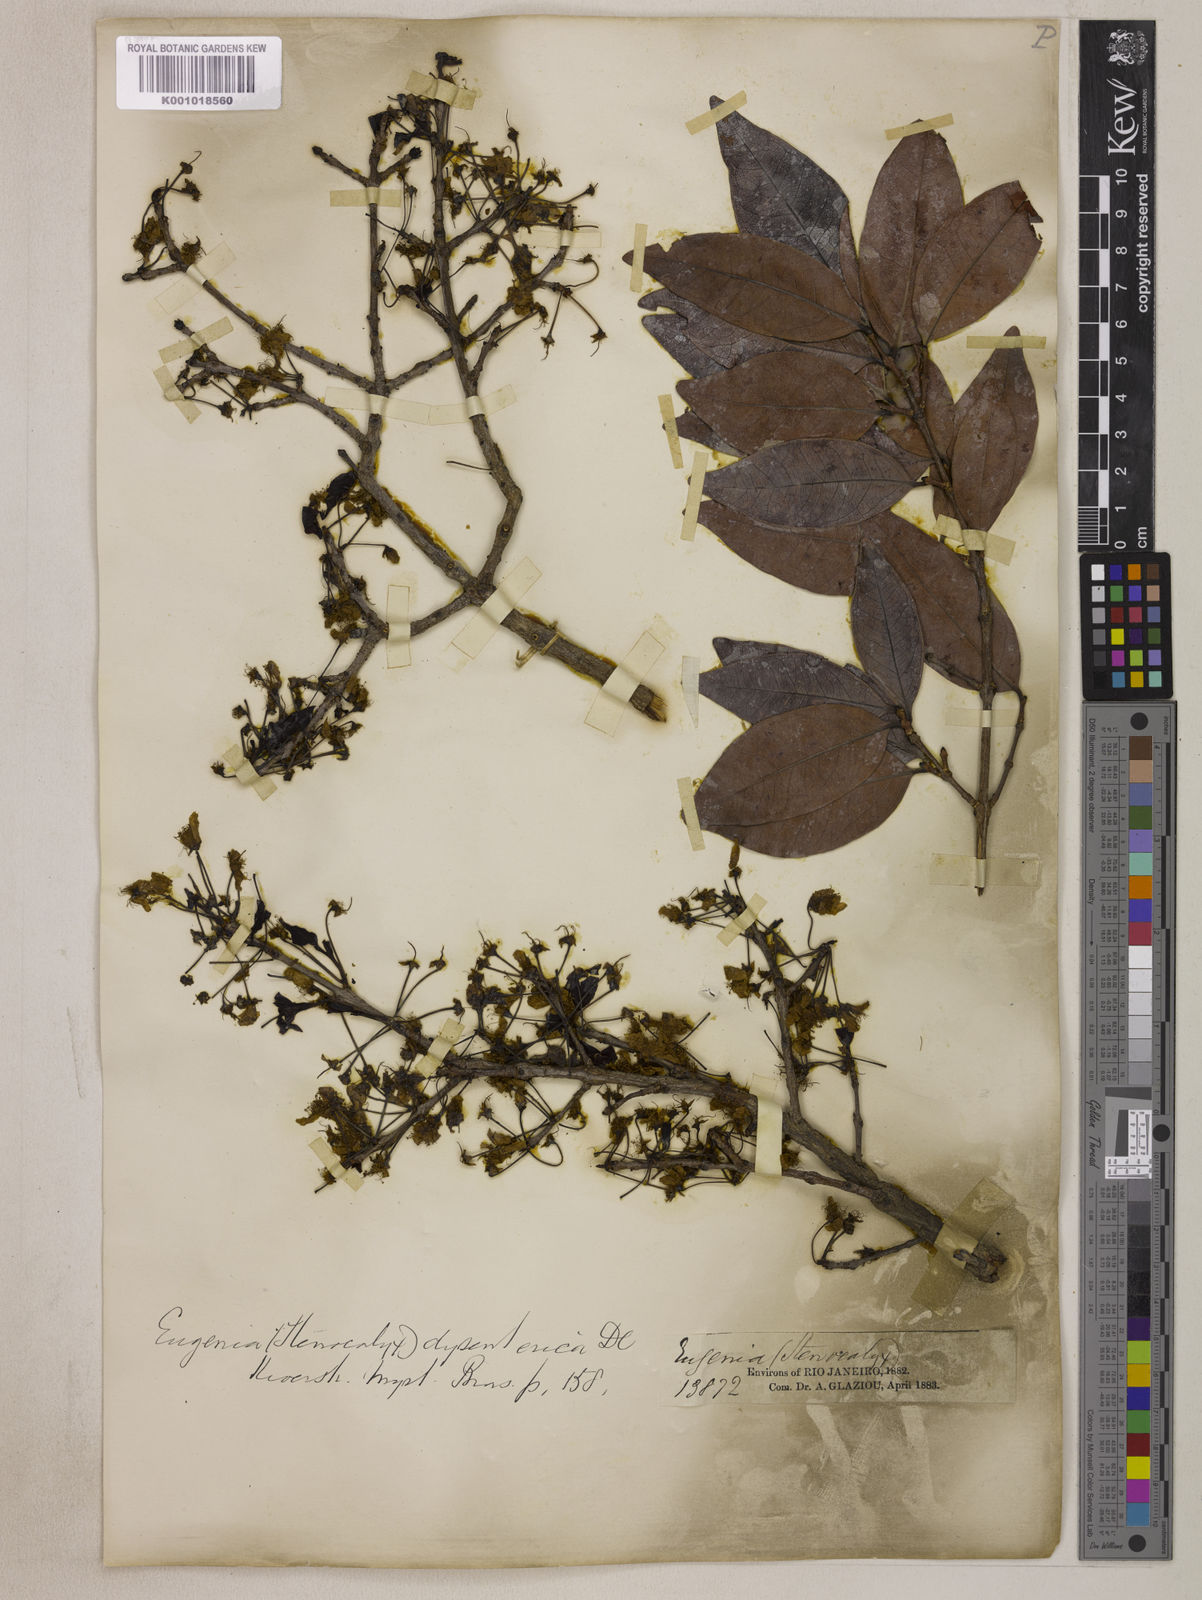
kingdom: Plantae
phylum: Tracheophyta
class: Magnoliopsida
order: Myrtales
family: Myrtaceae
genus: Eugenia
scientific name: Eugenia dysenterica
